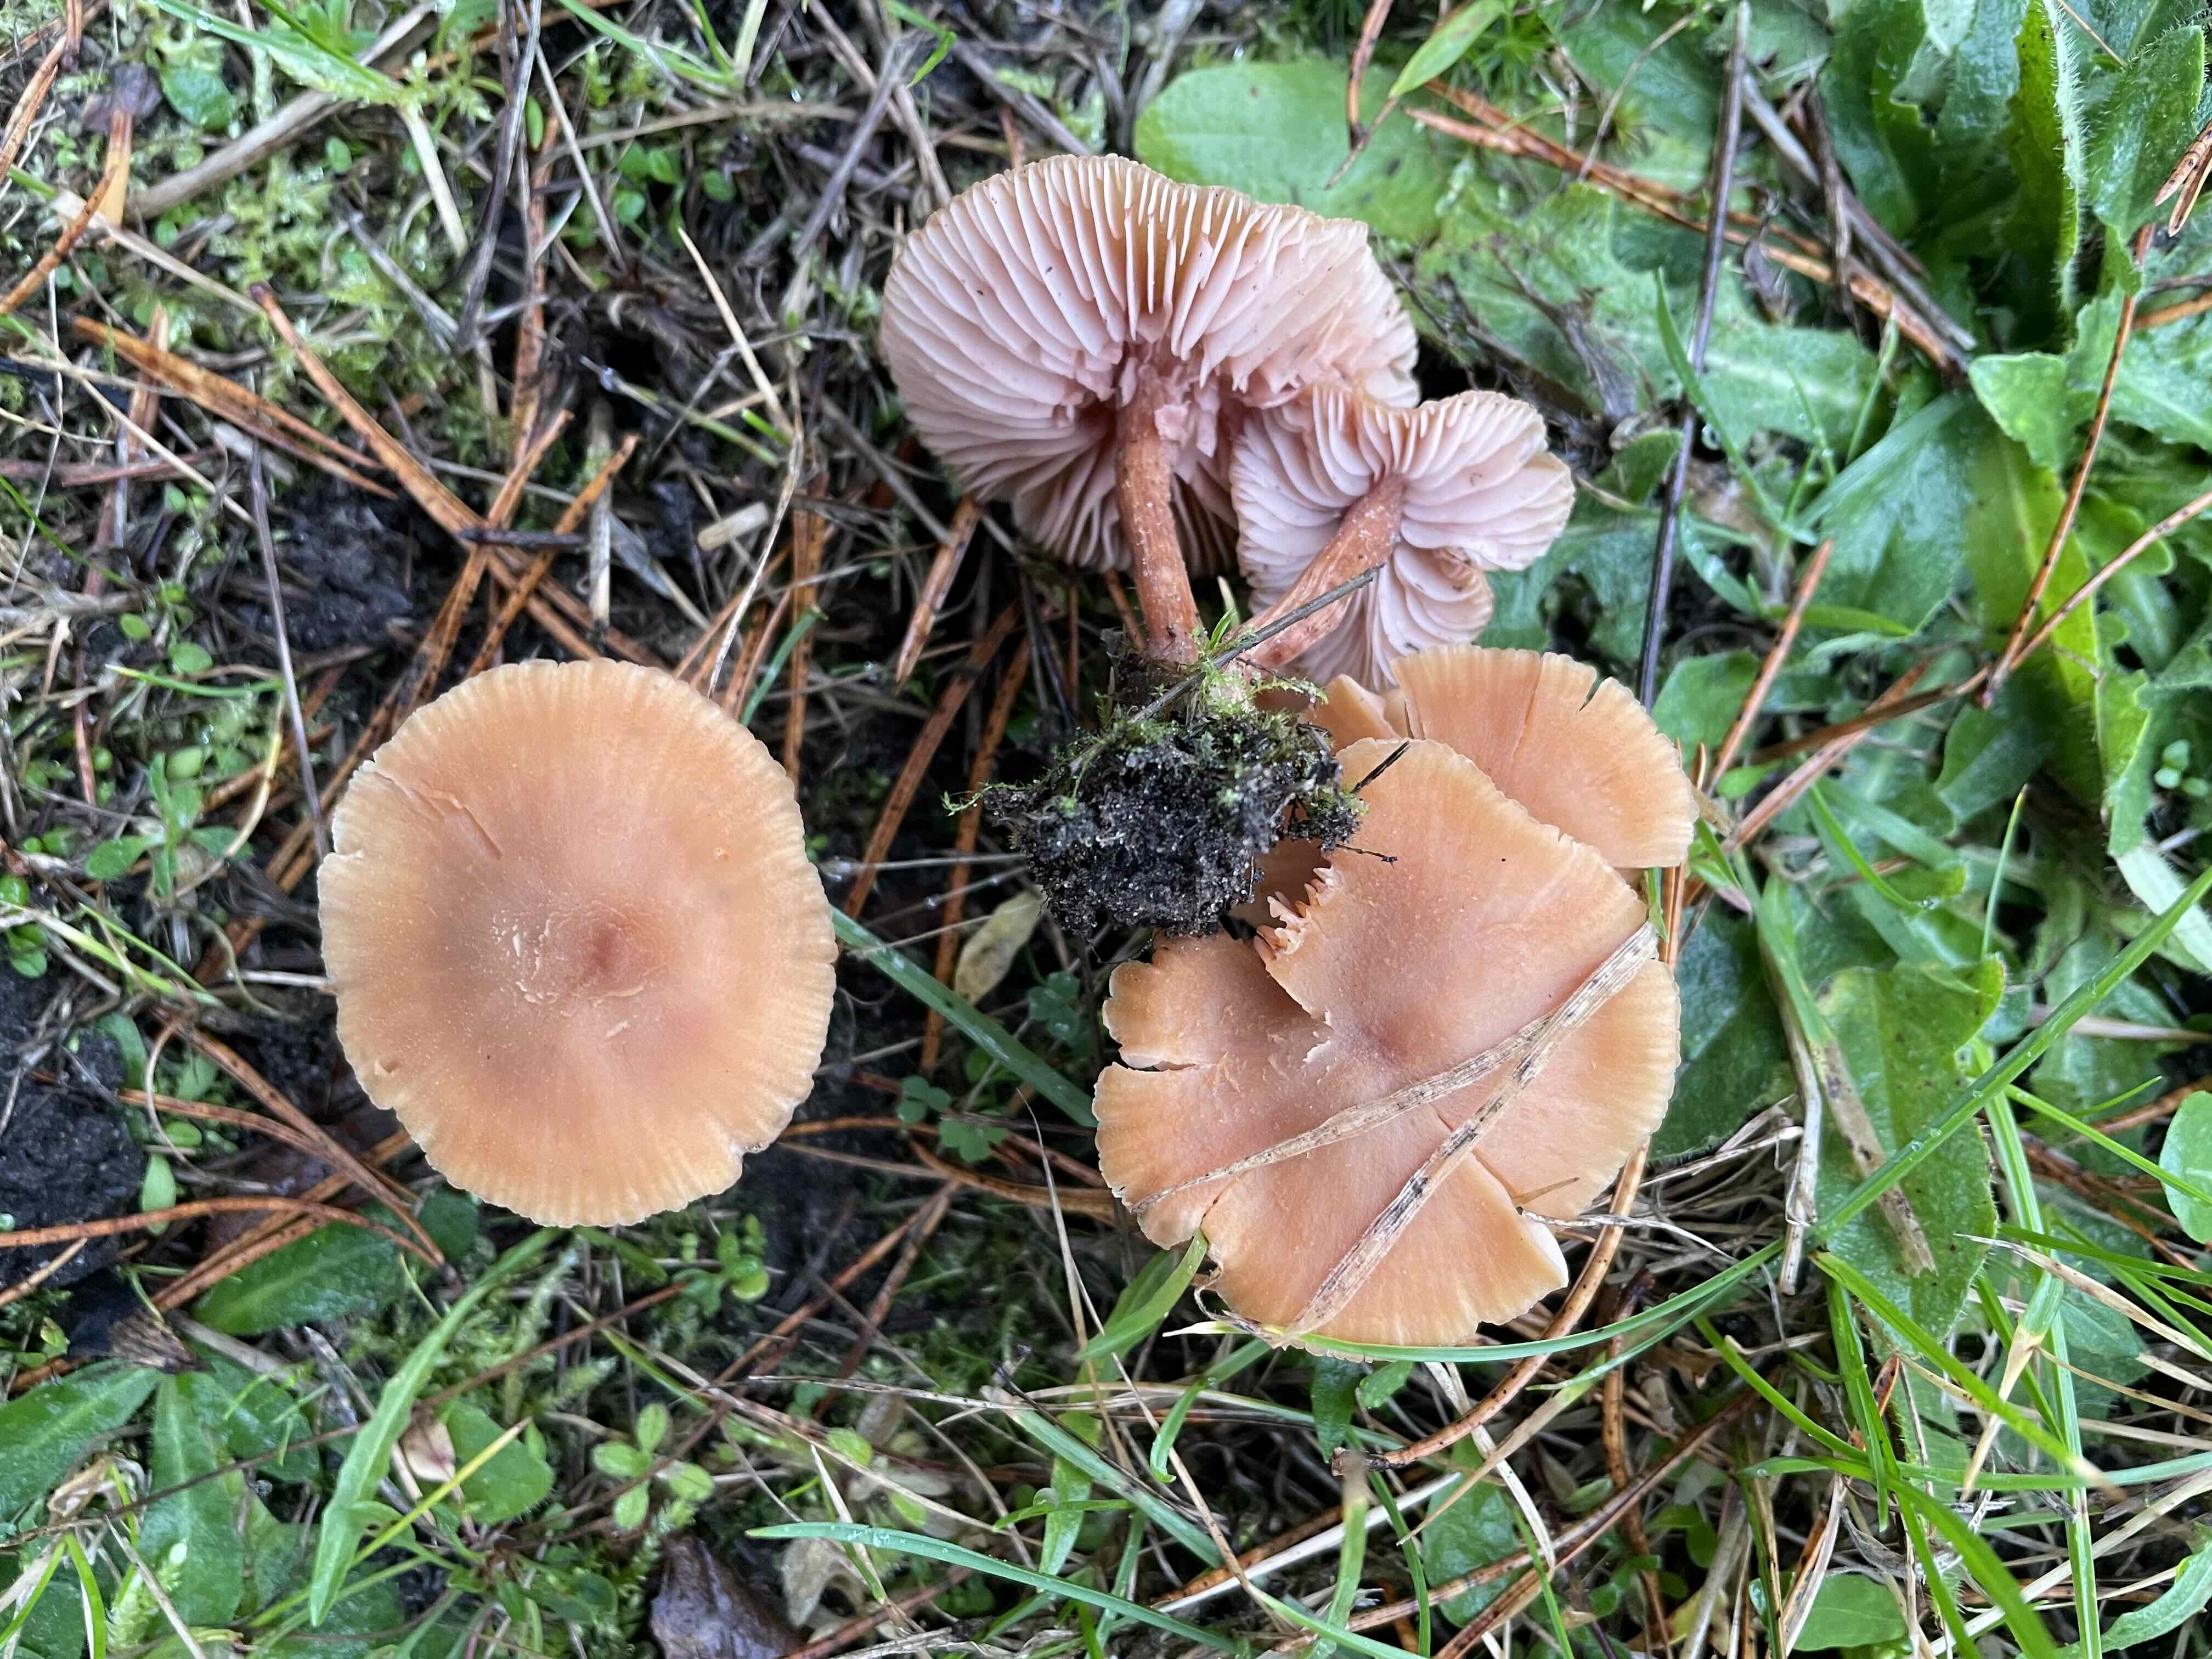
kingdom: Fungi
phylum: Basidiomycota
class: Agaricomycetes
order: Agaricales
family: Hydnangiaceae
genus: Laccaria
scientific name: Laccaria bicolor
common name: tvefarvet ametysthat
